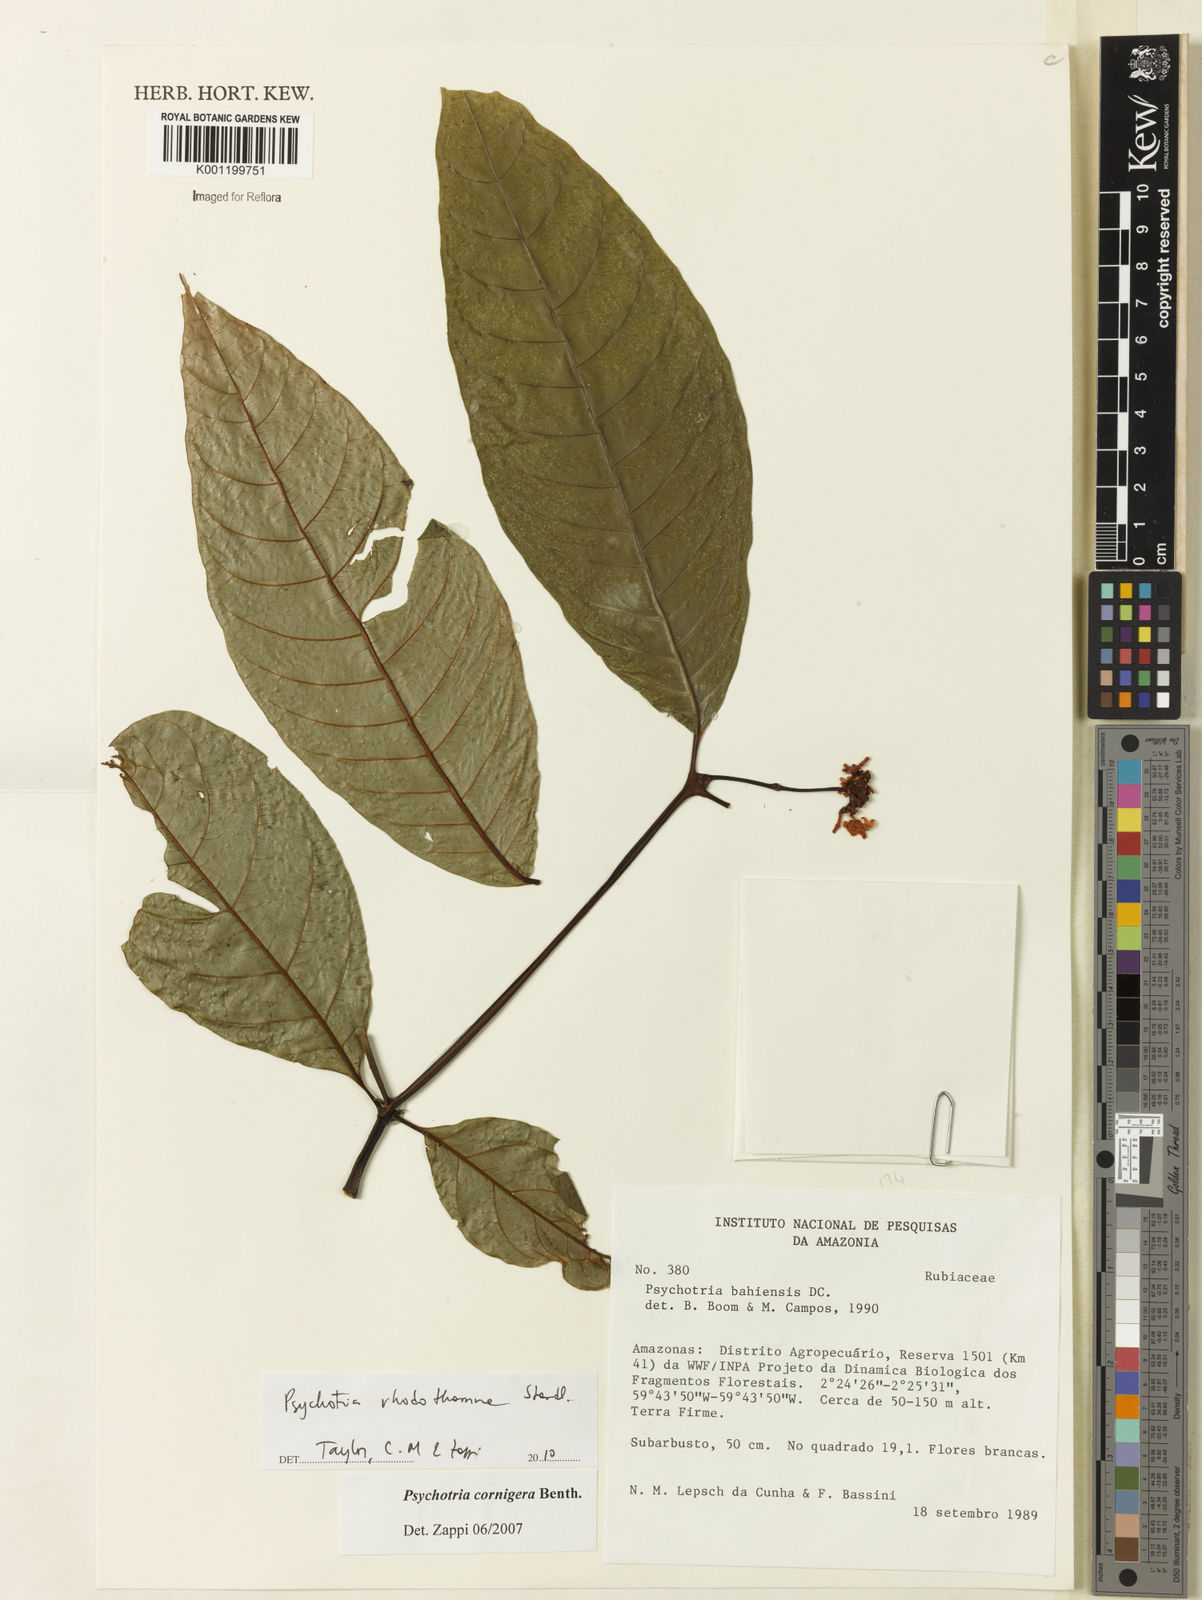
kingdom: Plantae
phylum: Tracheophyta
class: Magnoliopsida
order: Gentianales
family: Rubiaceae
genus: Palicourea
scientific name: Palicourea rhodothamna
